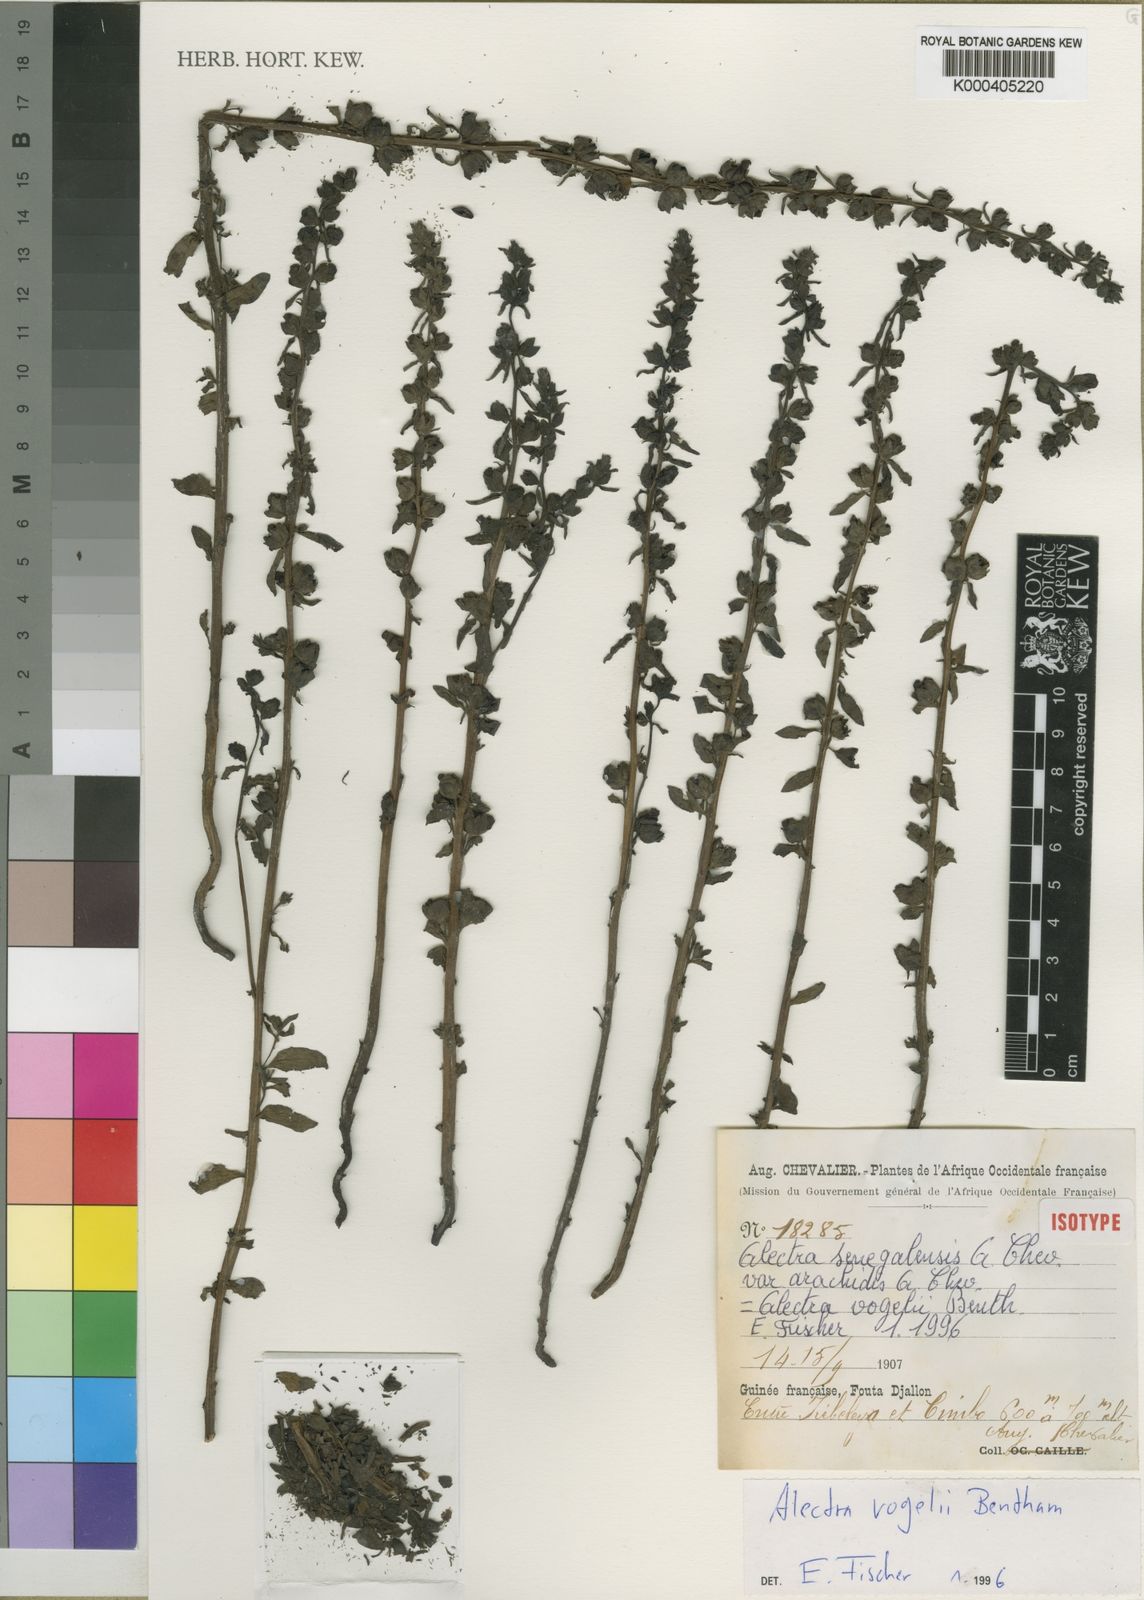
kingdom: Plantae
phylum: Tracheophyta
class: Magnoliopsida
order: Lamiales
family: Orobanchaceae
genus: Alectra
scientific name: Alectra vogelii
